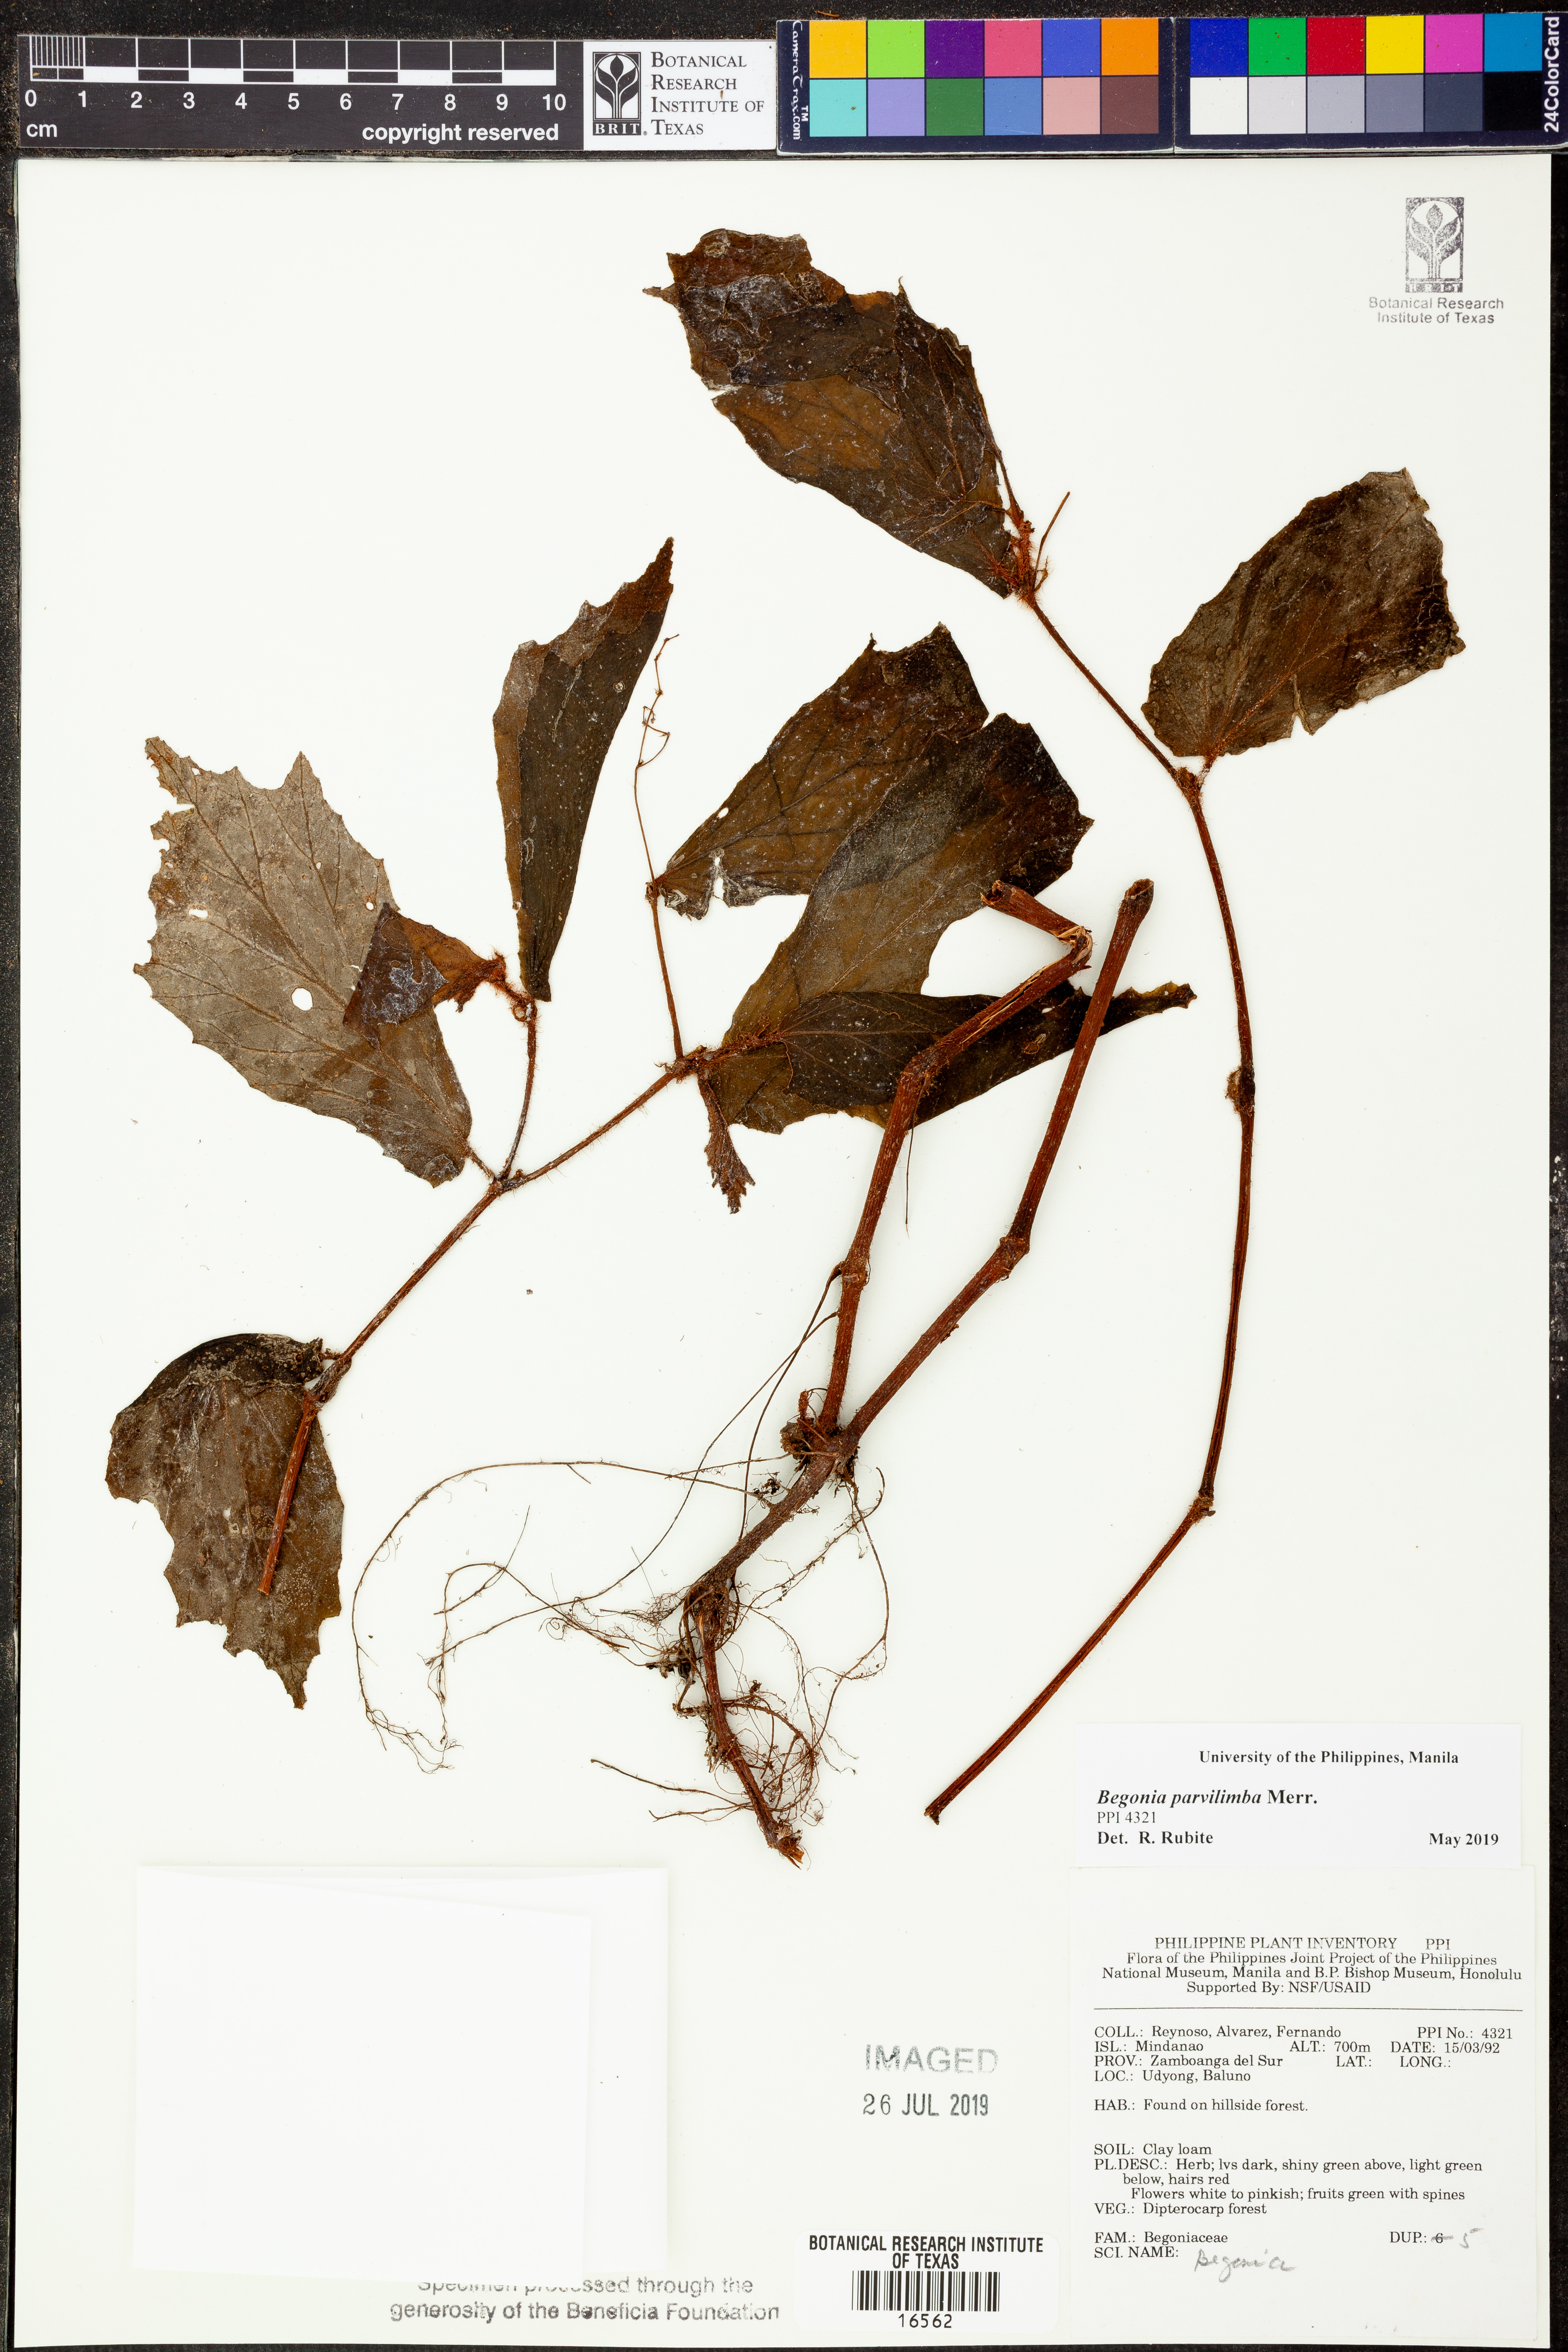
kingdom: Plantae
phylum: Tracheophyta
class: Magnoliopsida
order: Cucurbitales
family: Begoniaceae
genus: Begonia
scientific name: Begonia parvilimba
